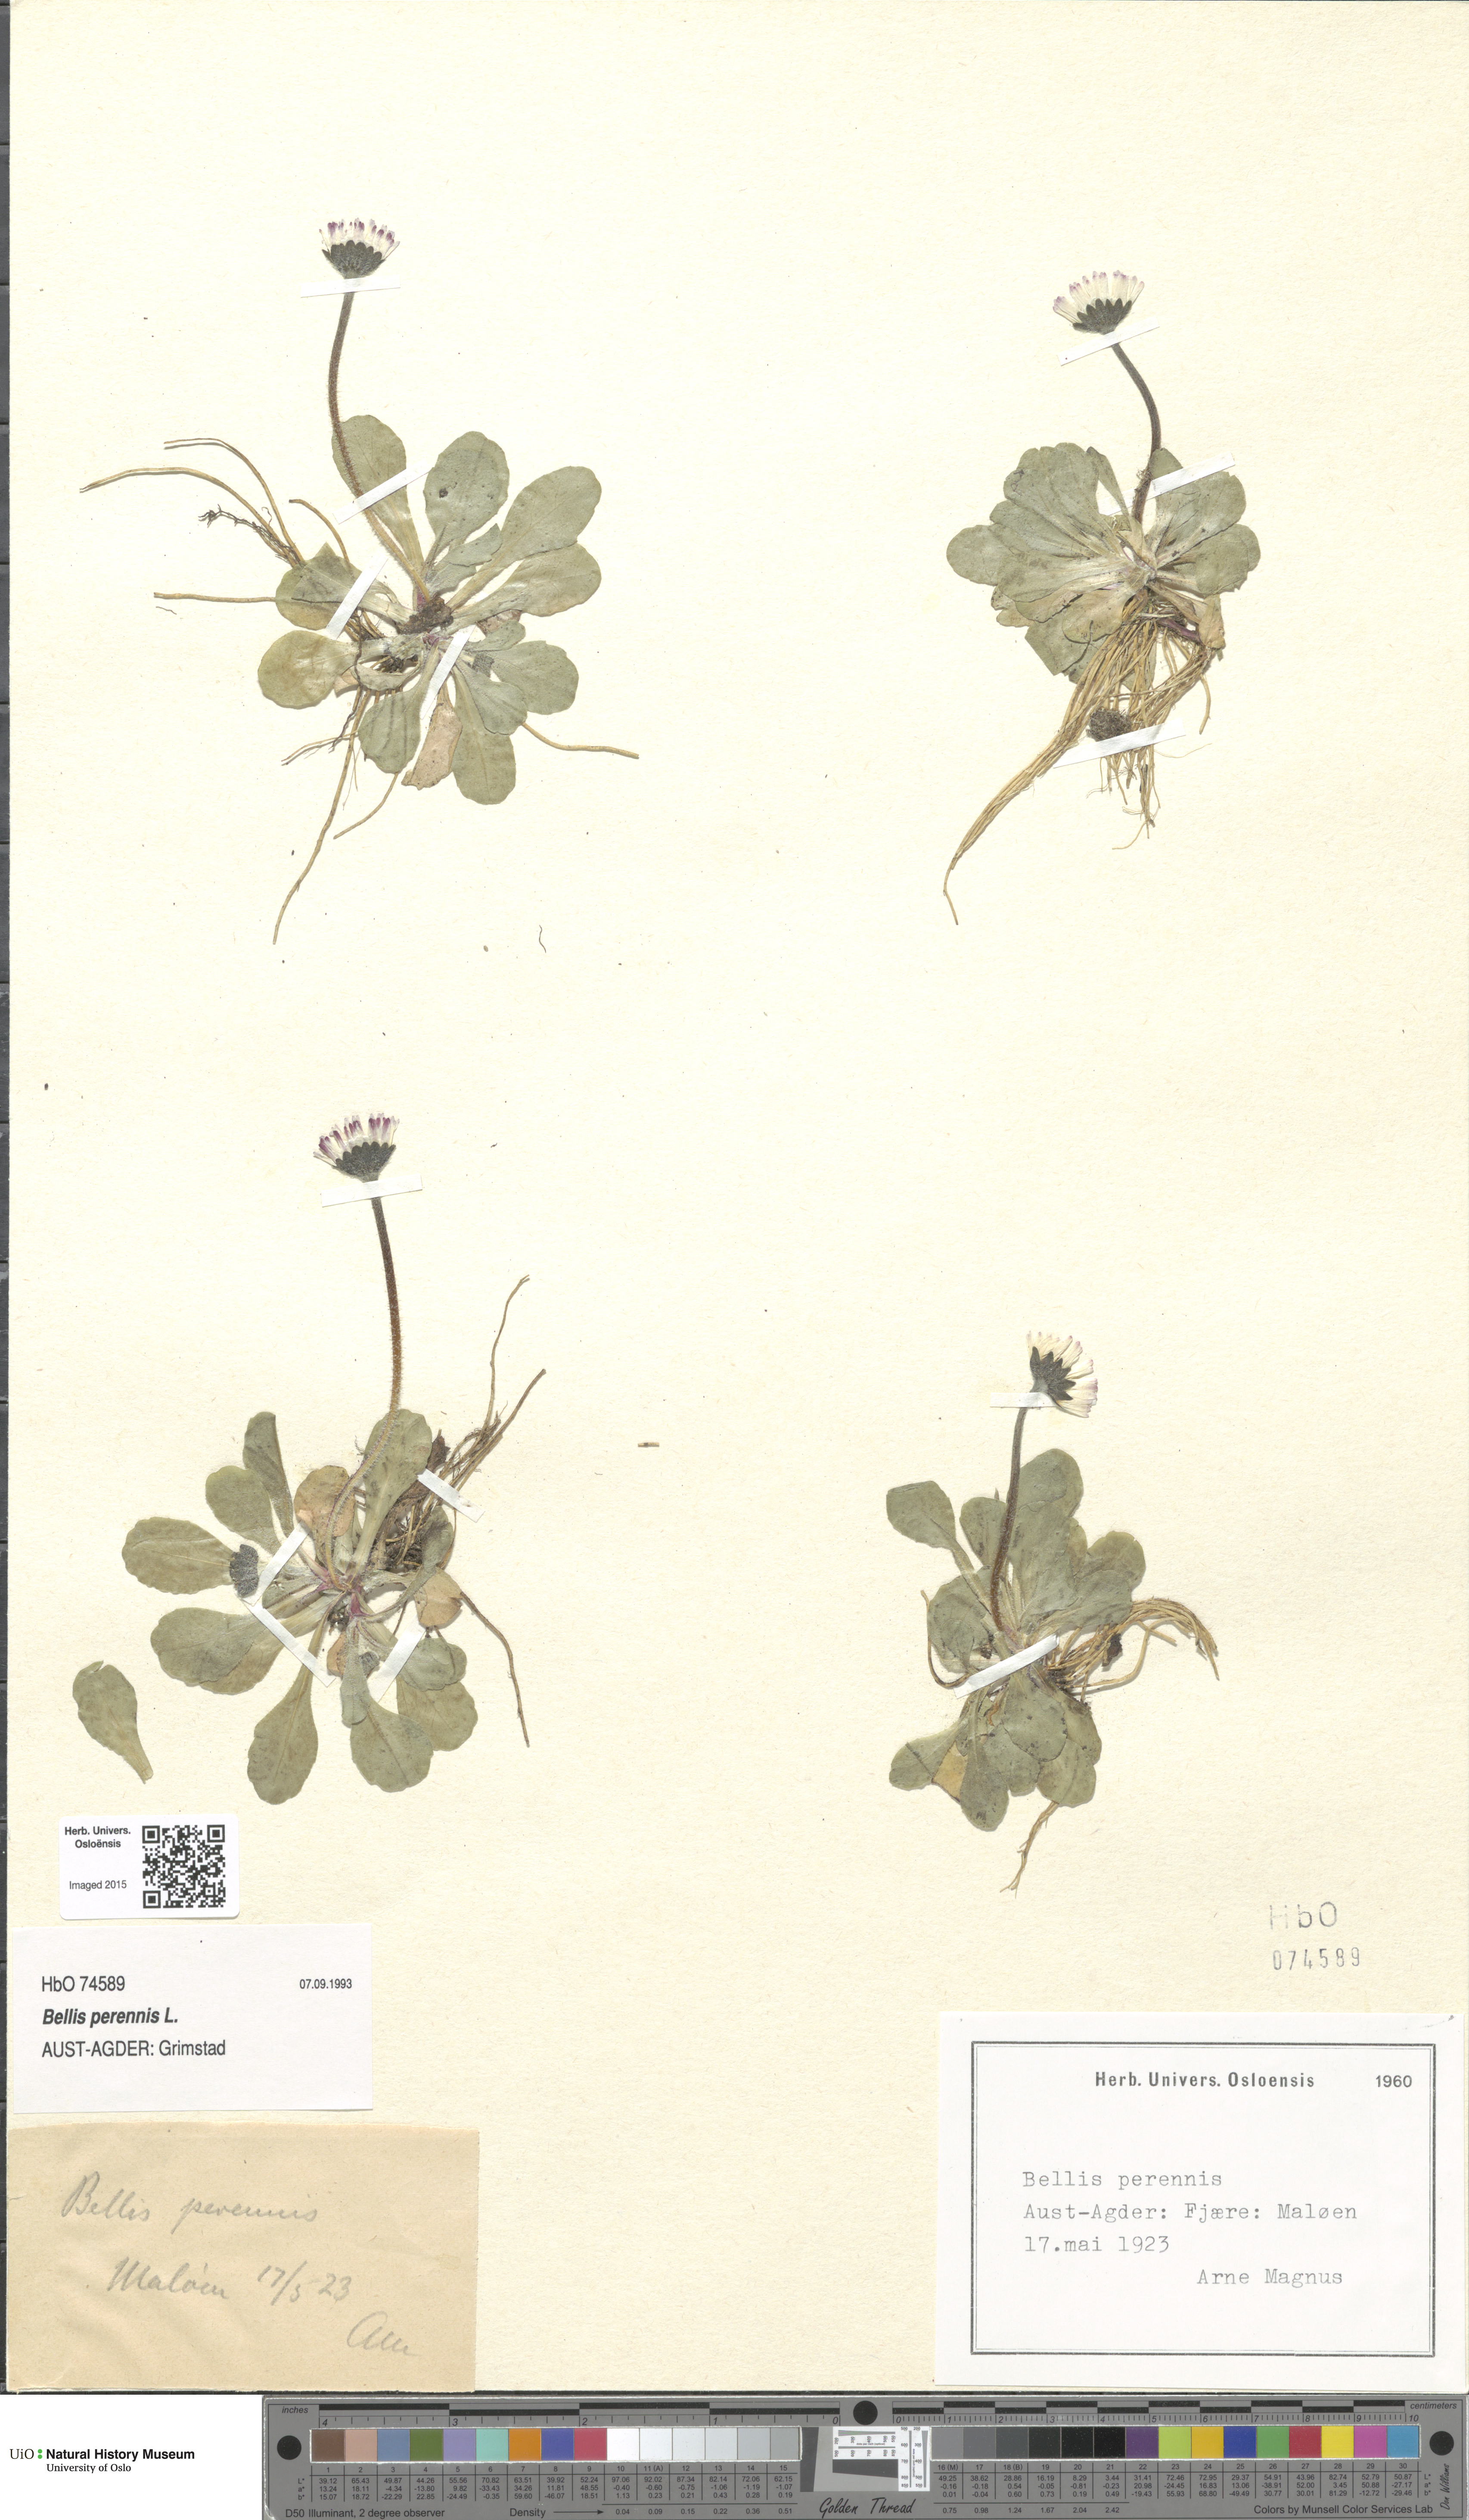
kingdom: Plantae
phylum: Tracheophyta
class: Magnoliopsida
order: Asterales
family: Asteraceae
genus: Bellis
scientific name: Bellis perennis
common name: Lawndaisy
